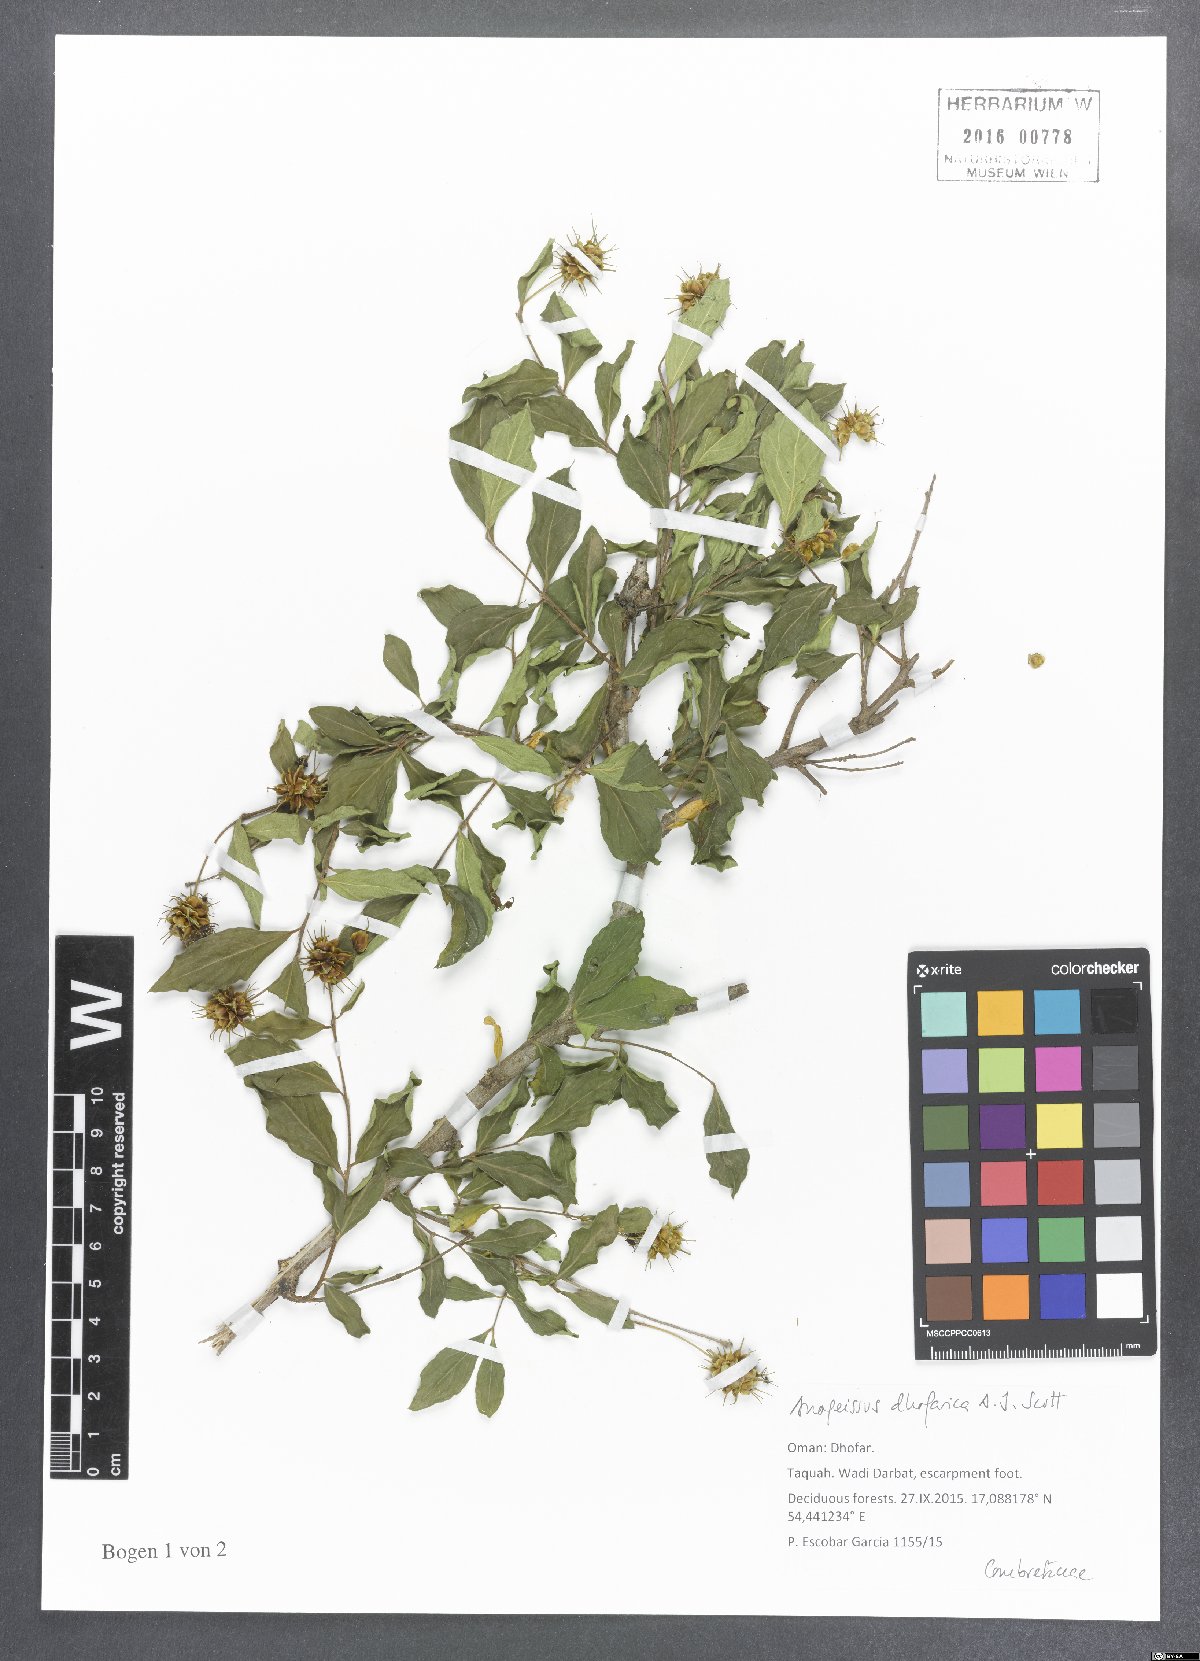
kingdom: Plantae
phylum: Tracheophyta
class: Magnoliopsida
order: Myrtales
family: Combretaceae
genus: Terminalia
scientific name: Terminalia dhofarica
